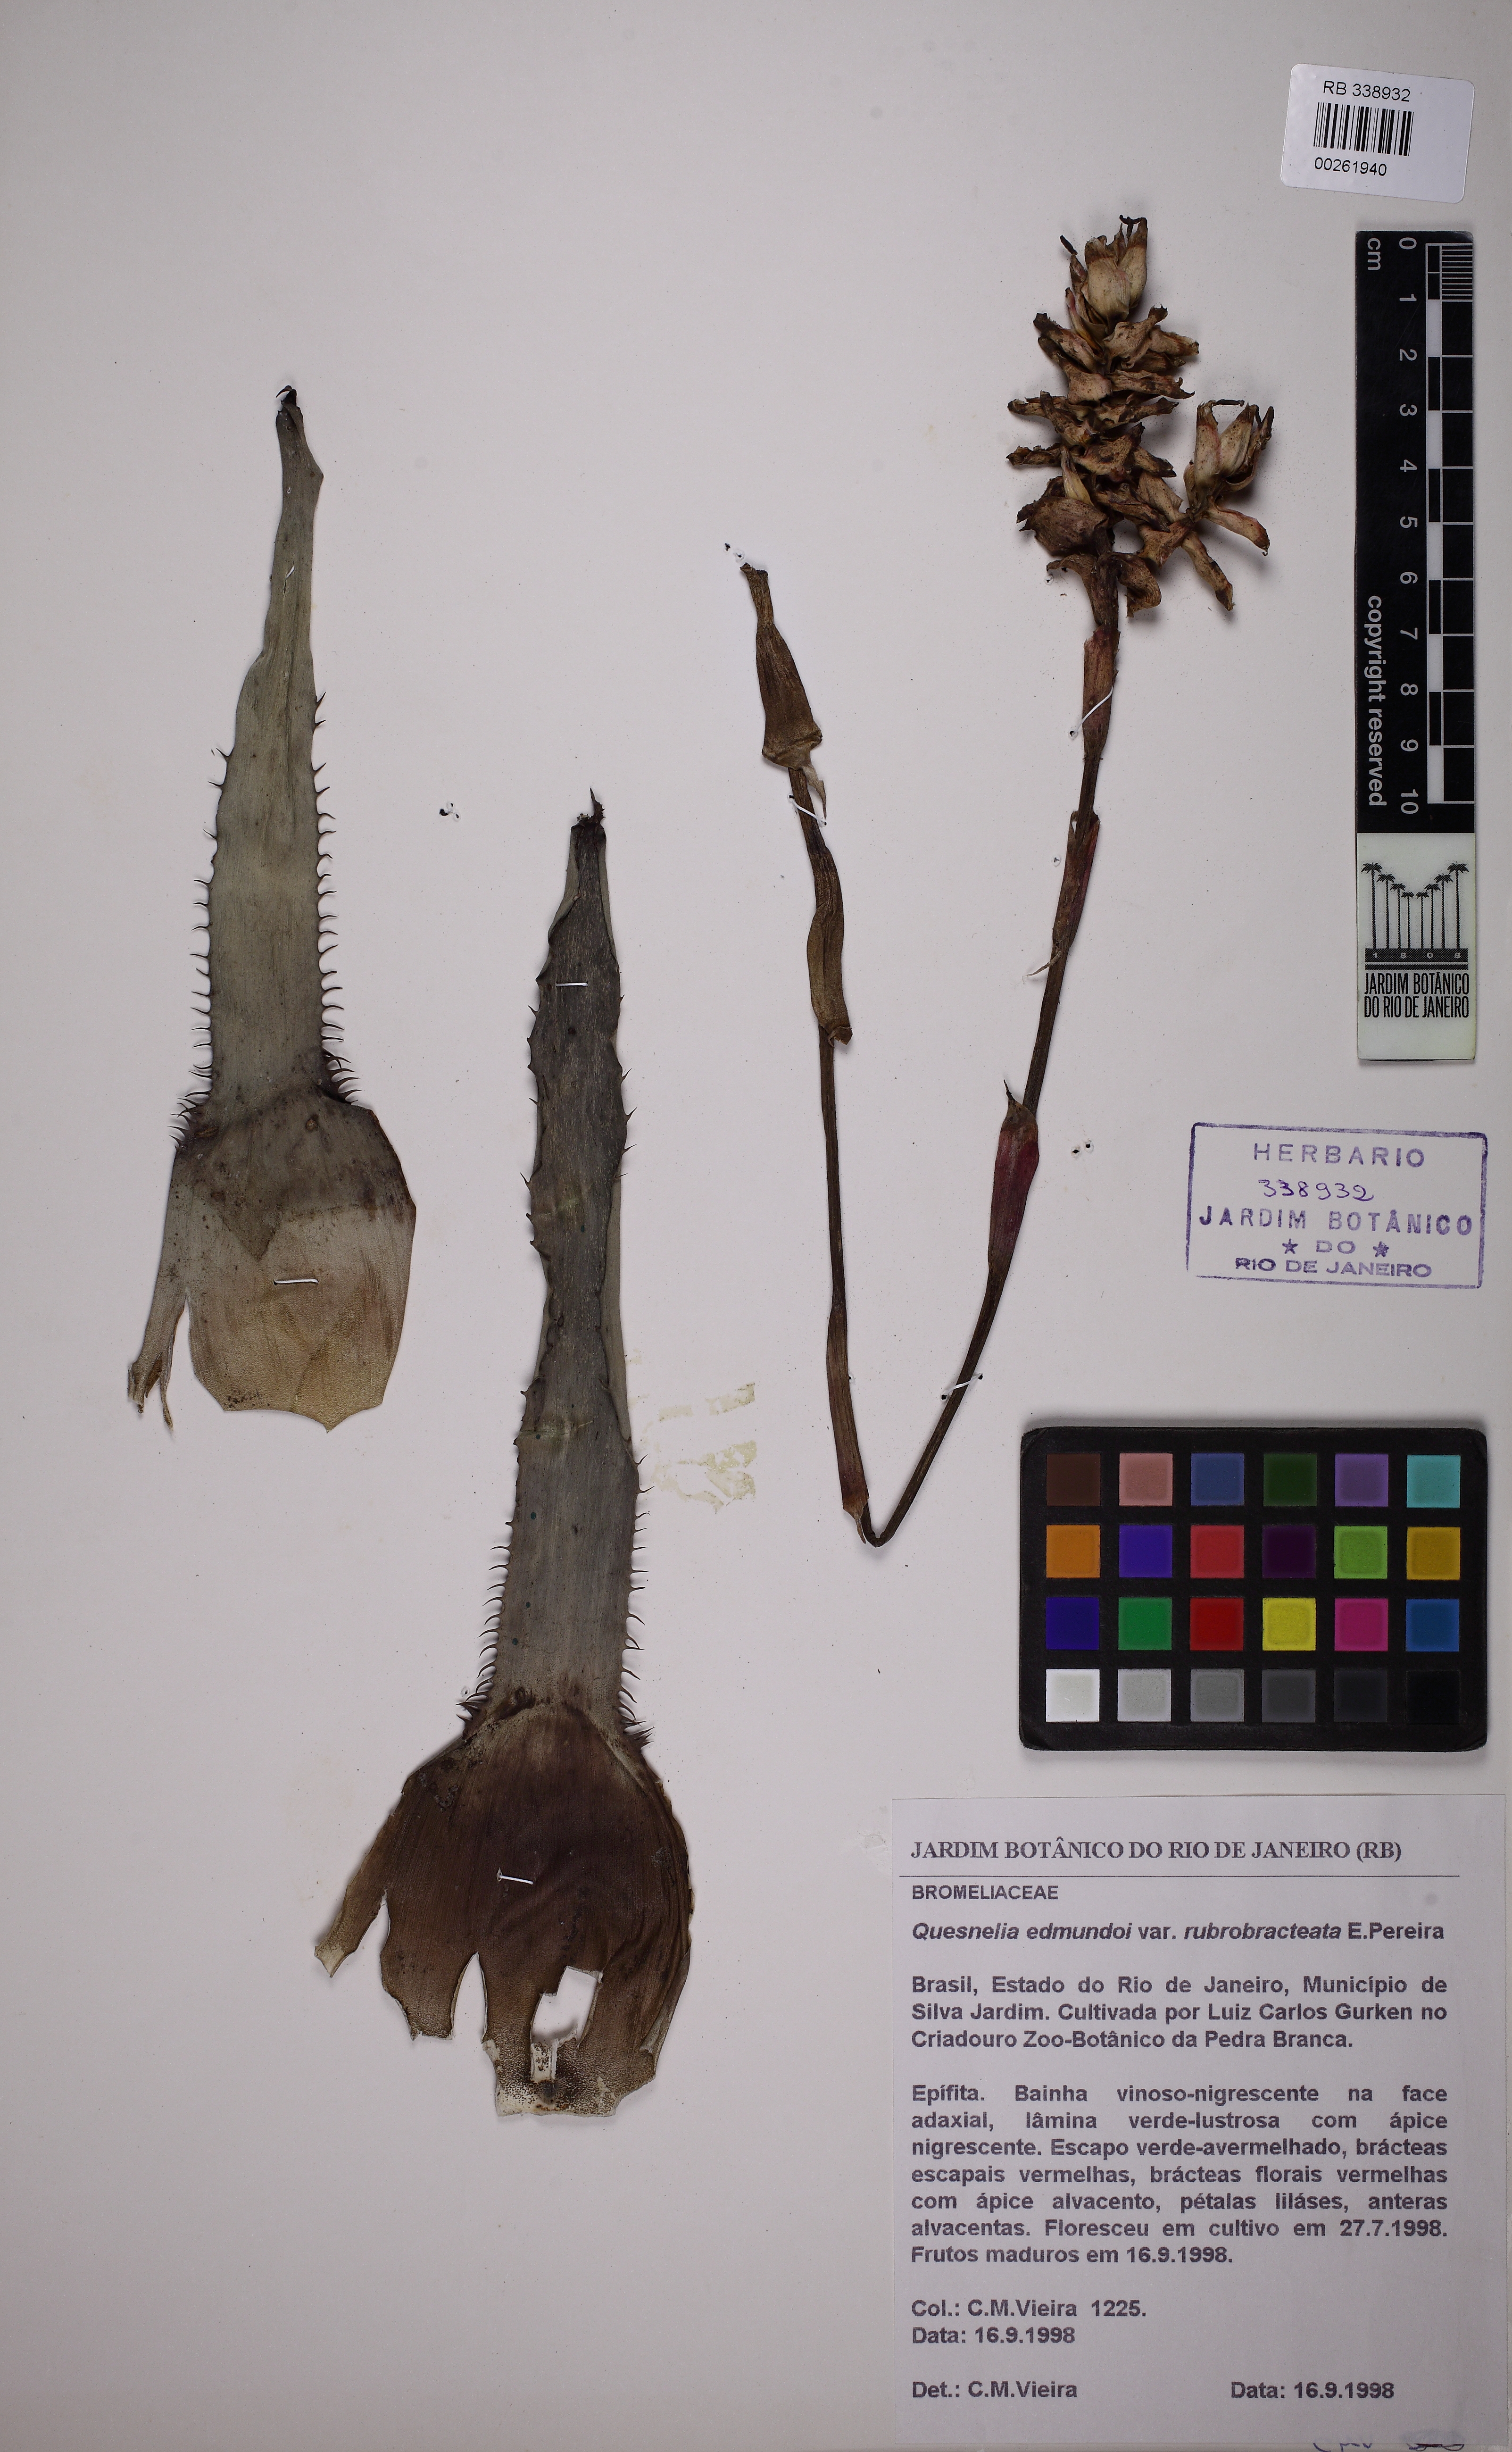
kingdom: Plantae
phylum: Tracheophyta
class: Liliopsida
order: Poales
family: Bromeliaceae
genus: Quesnelia
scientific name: Quesnelia edmundoi
